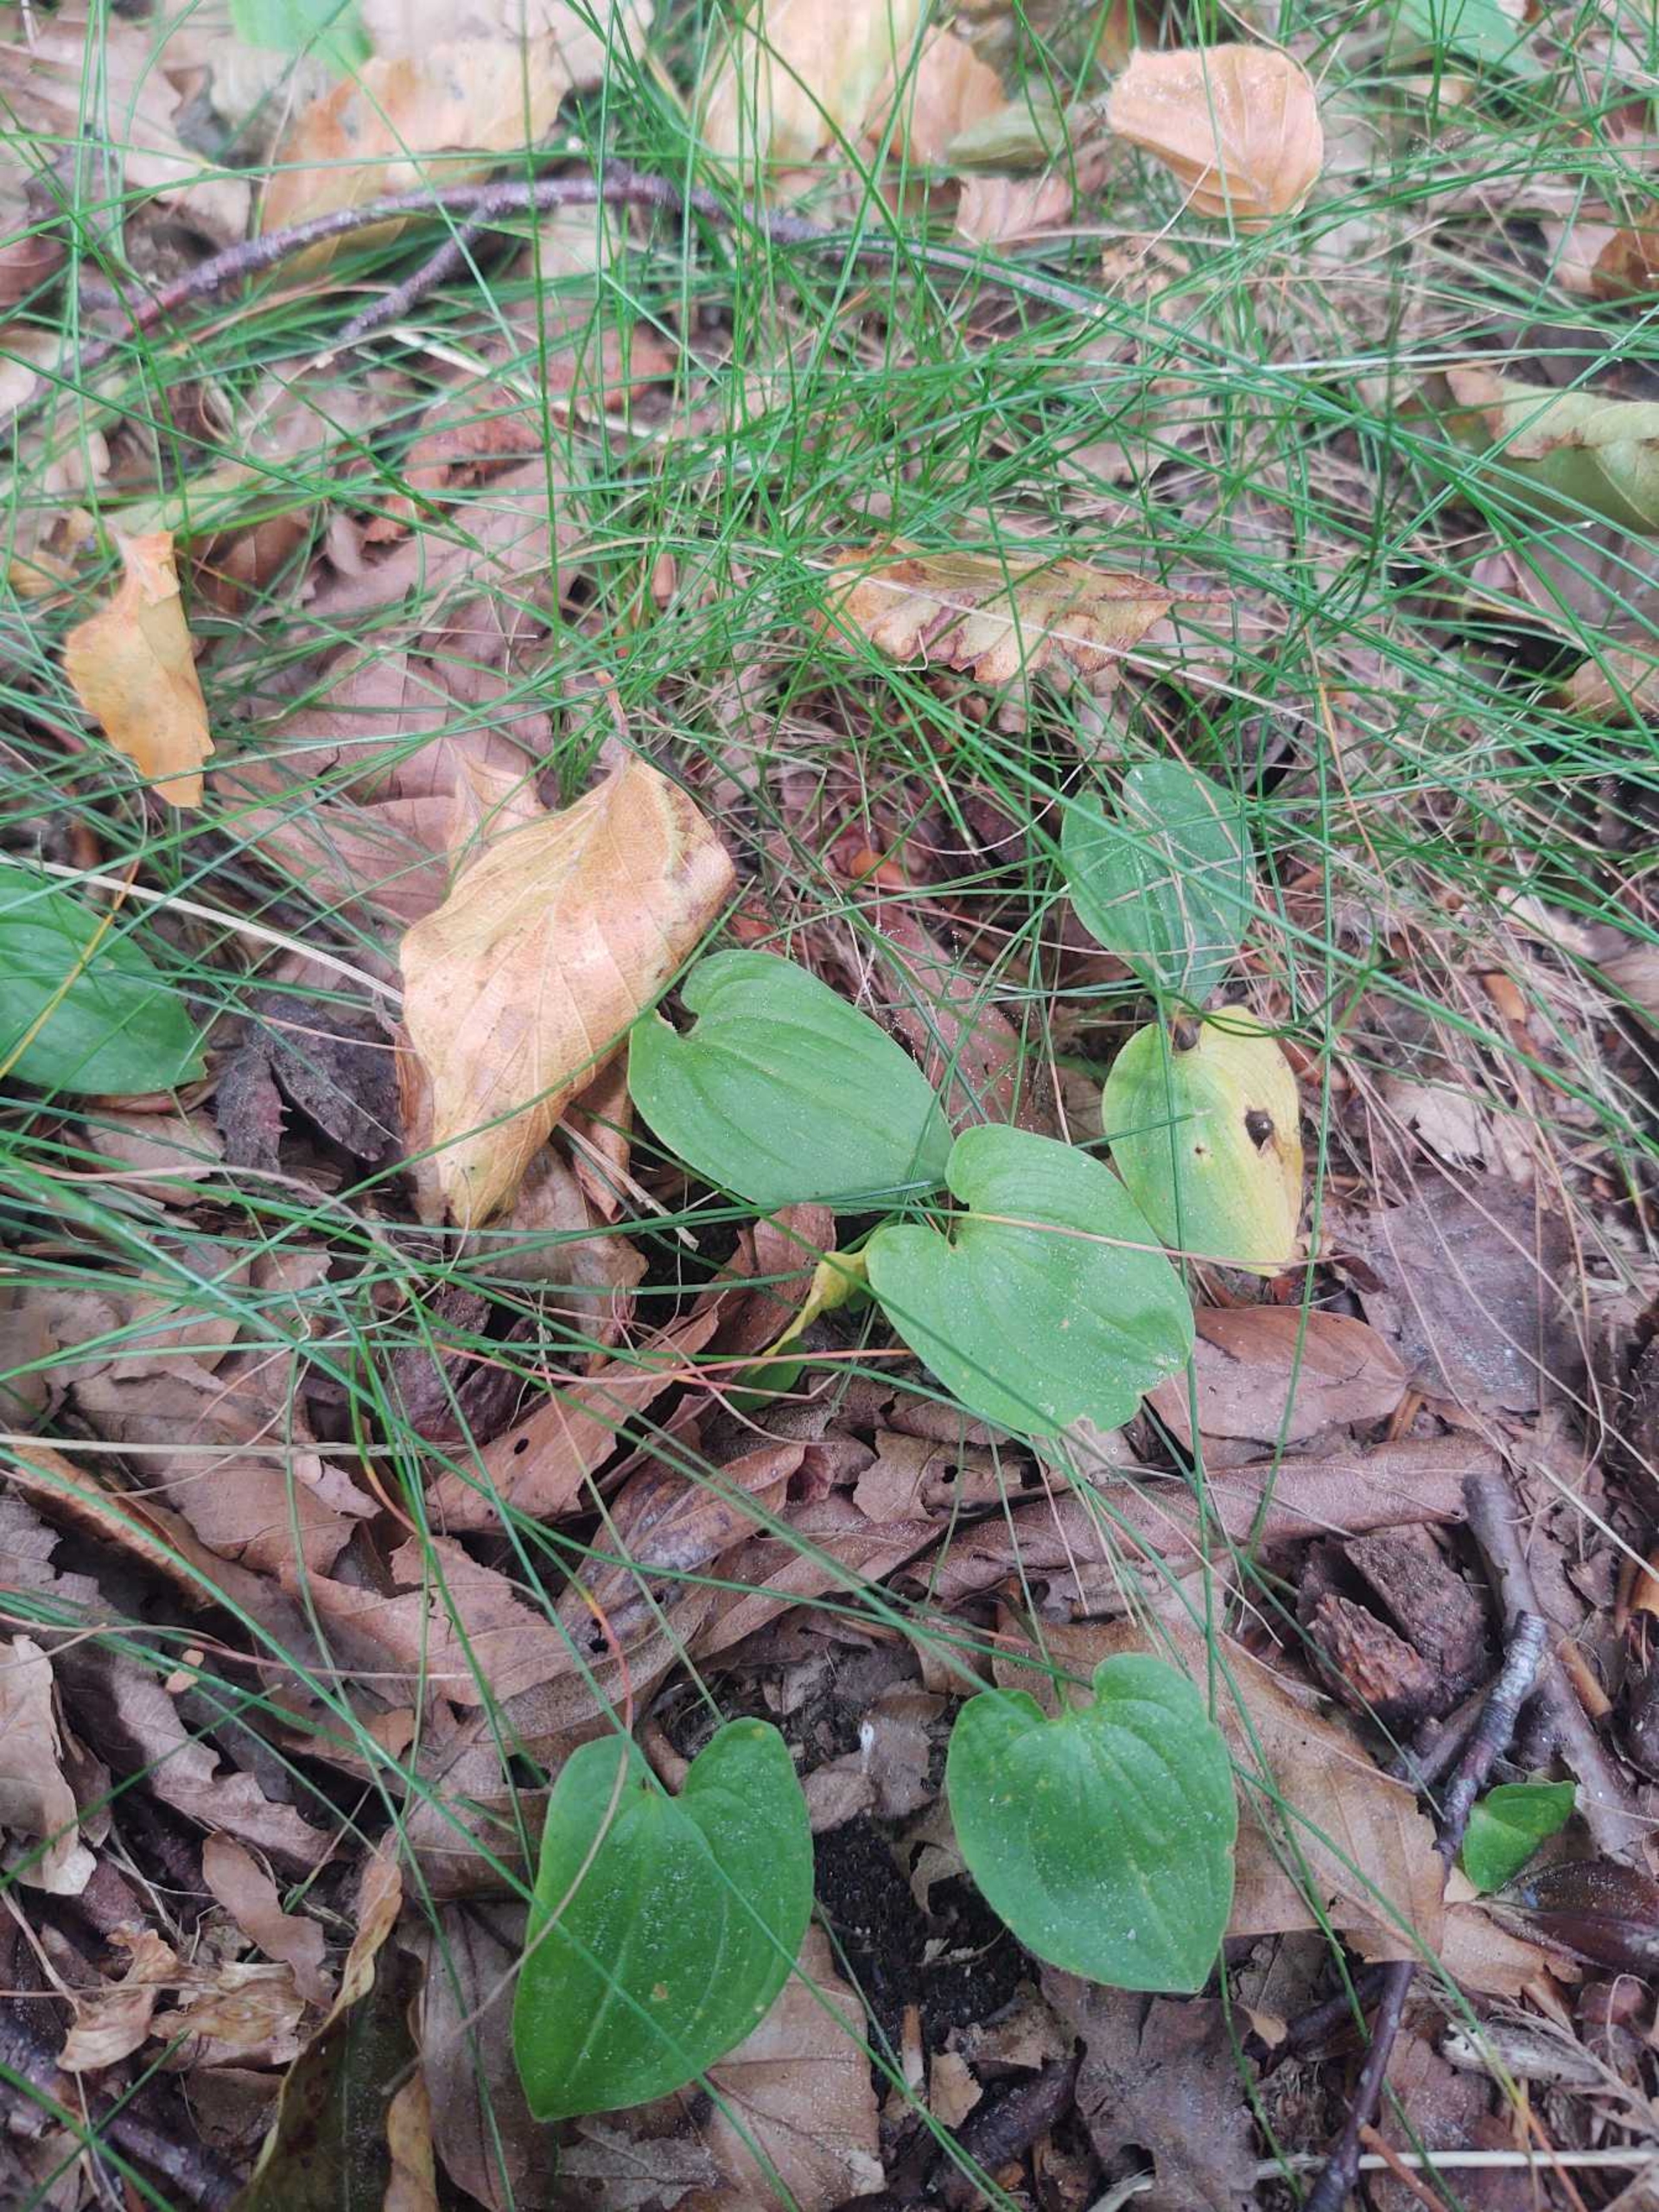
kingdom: Plantae
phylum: Tracheophyta
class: Liliopsida
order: Asparagales
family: Asparagaceae
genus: Maianthemum
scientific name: Maianthemum bifolium
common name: Majblomst
